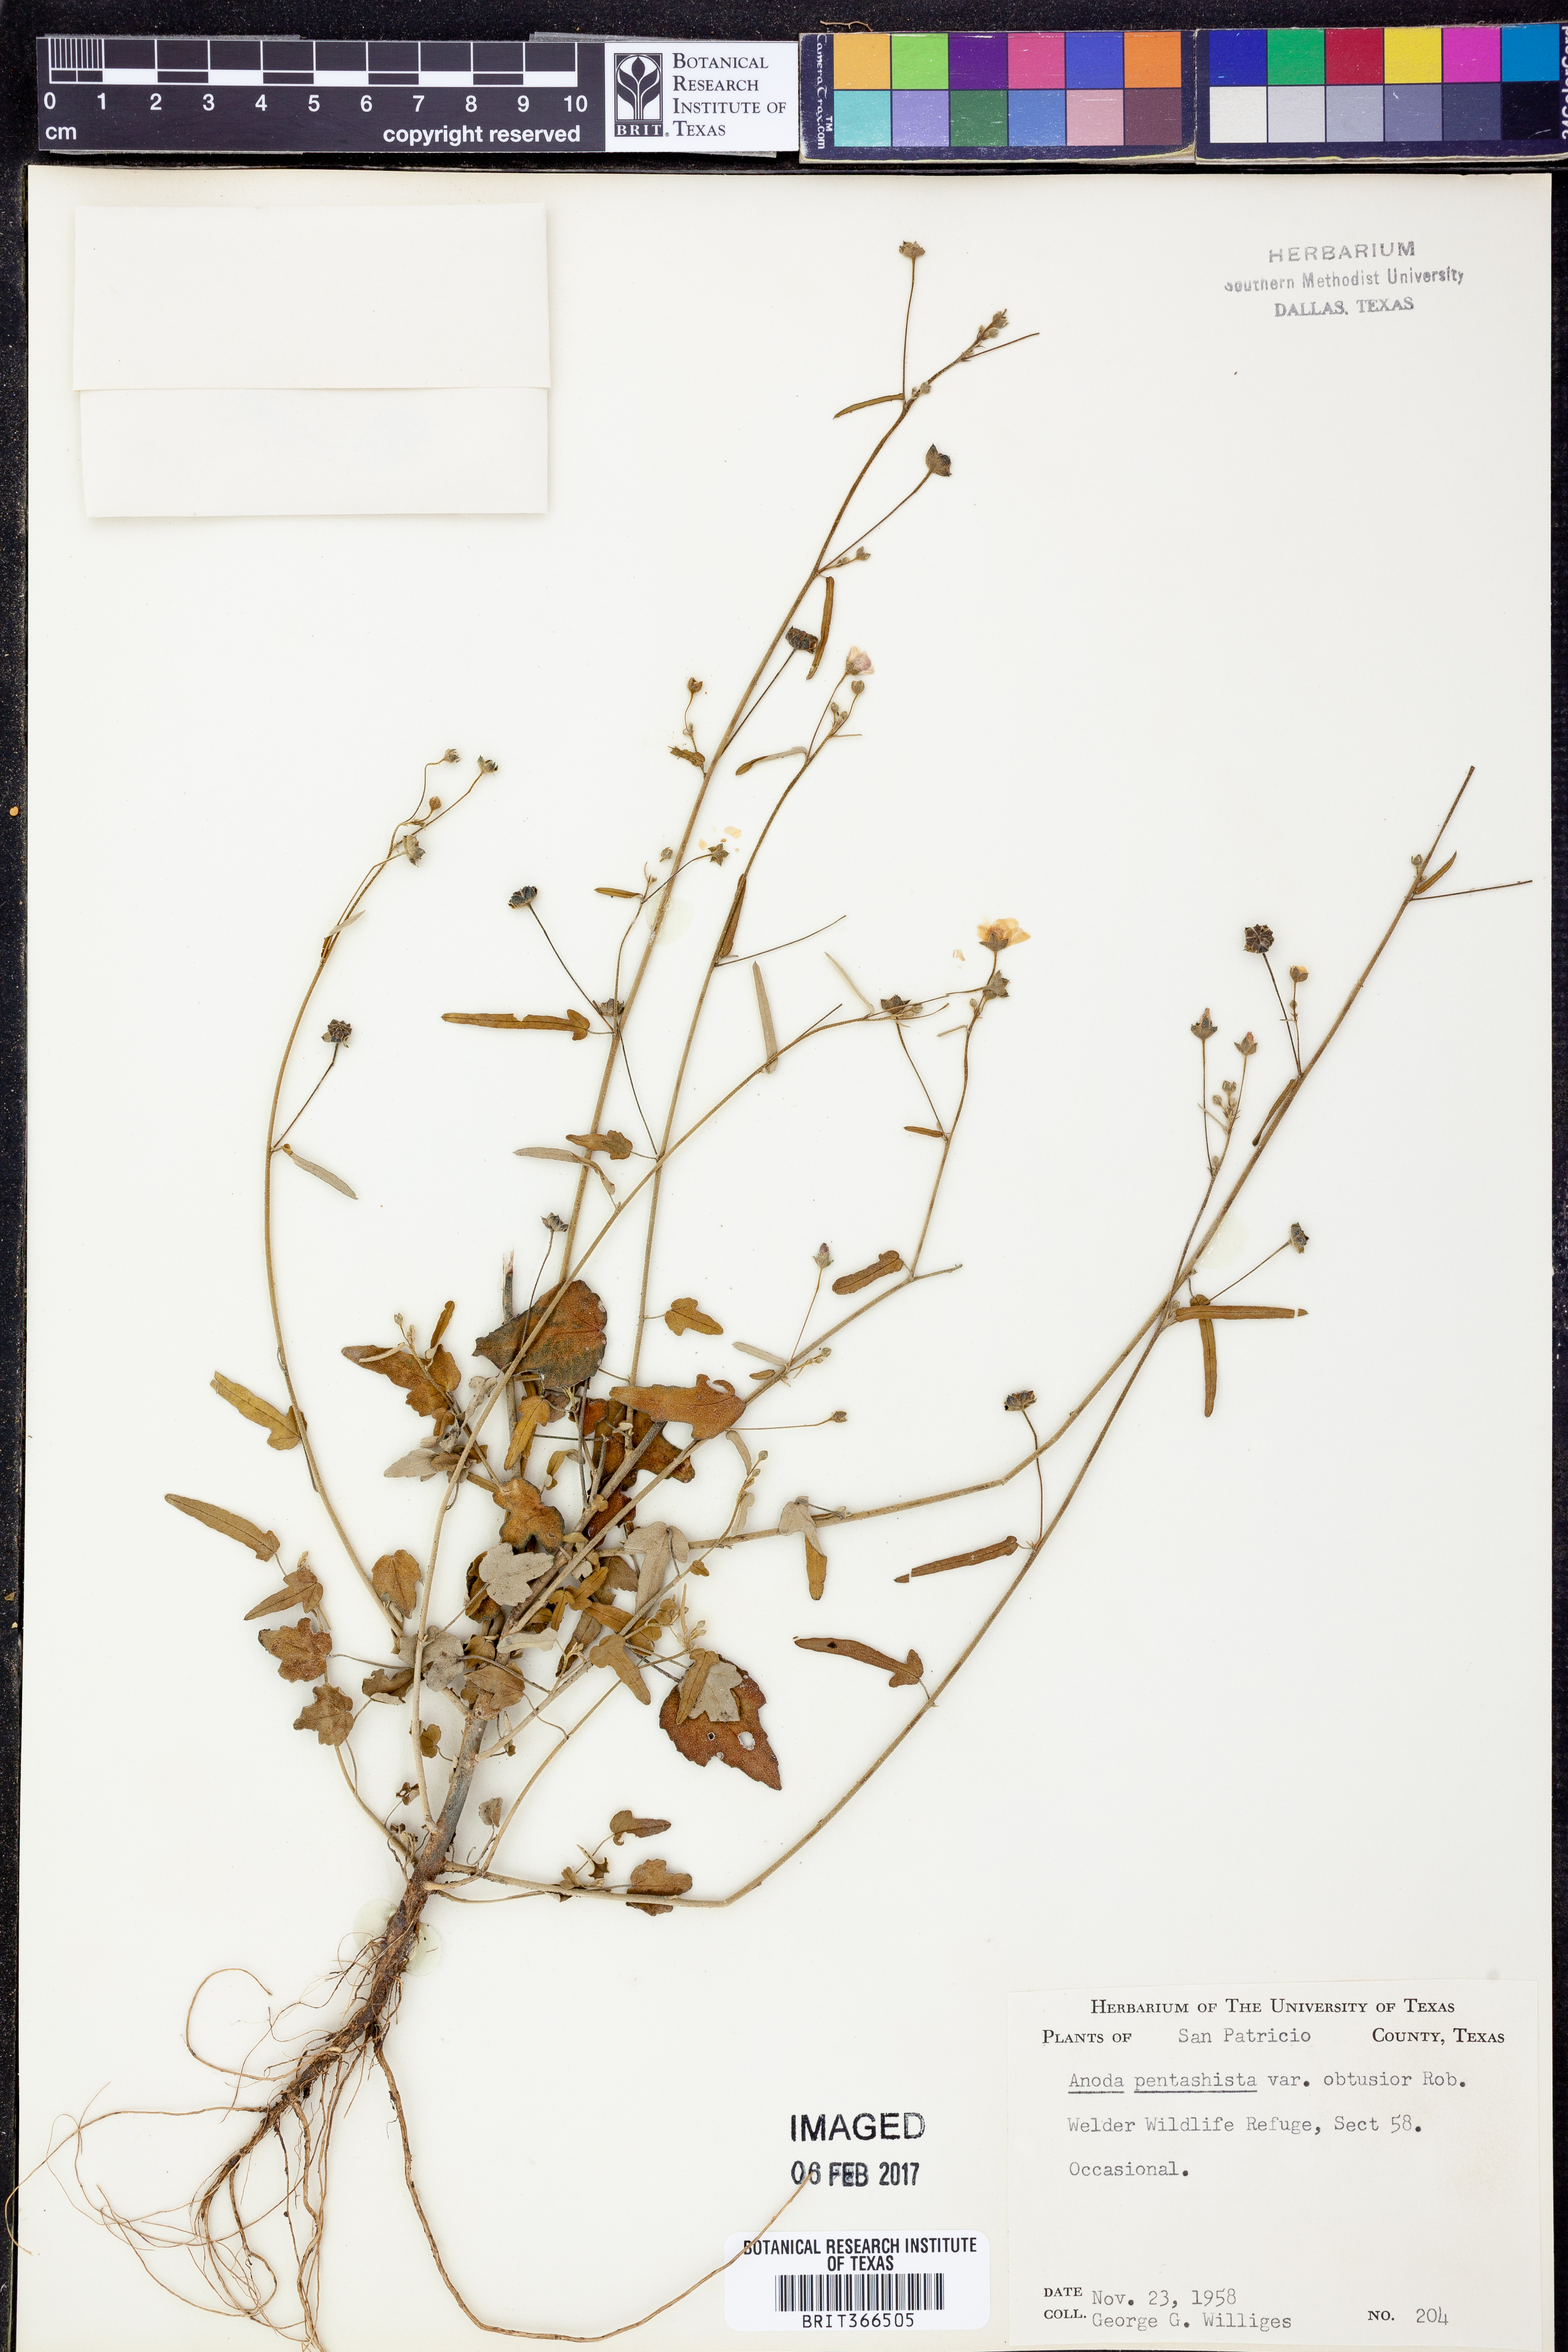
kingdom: Plantae
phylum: Tracheophyta
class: Magnoliopsida
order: Malvales
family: Malvaceae
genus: Anoda
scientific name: Anoda pentaschista
